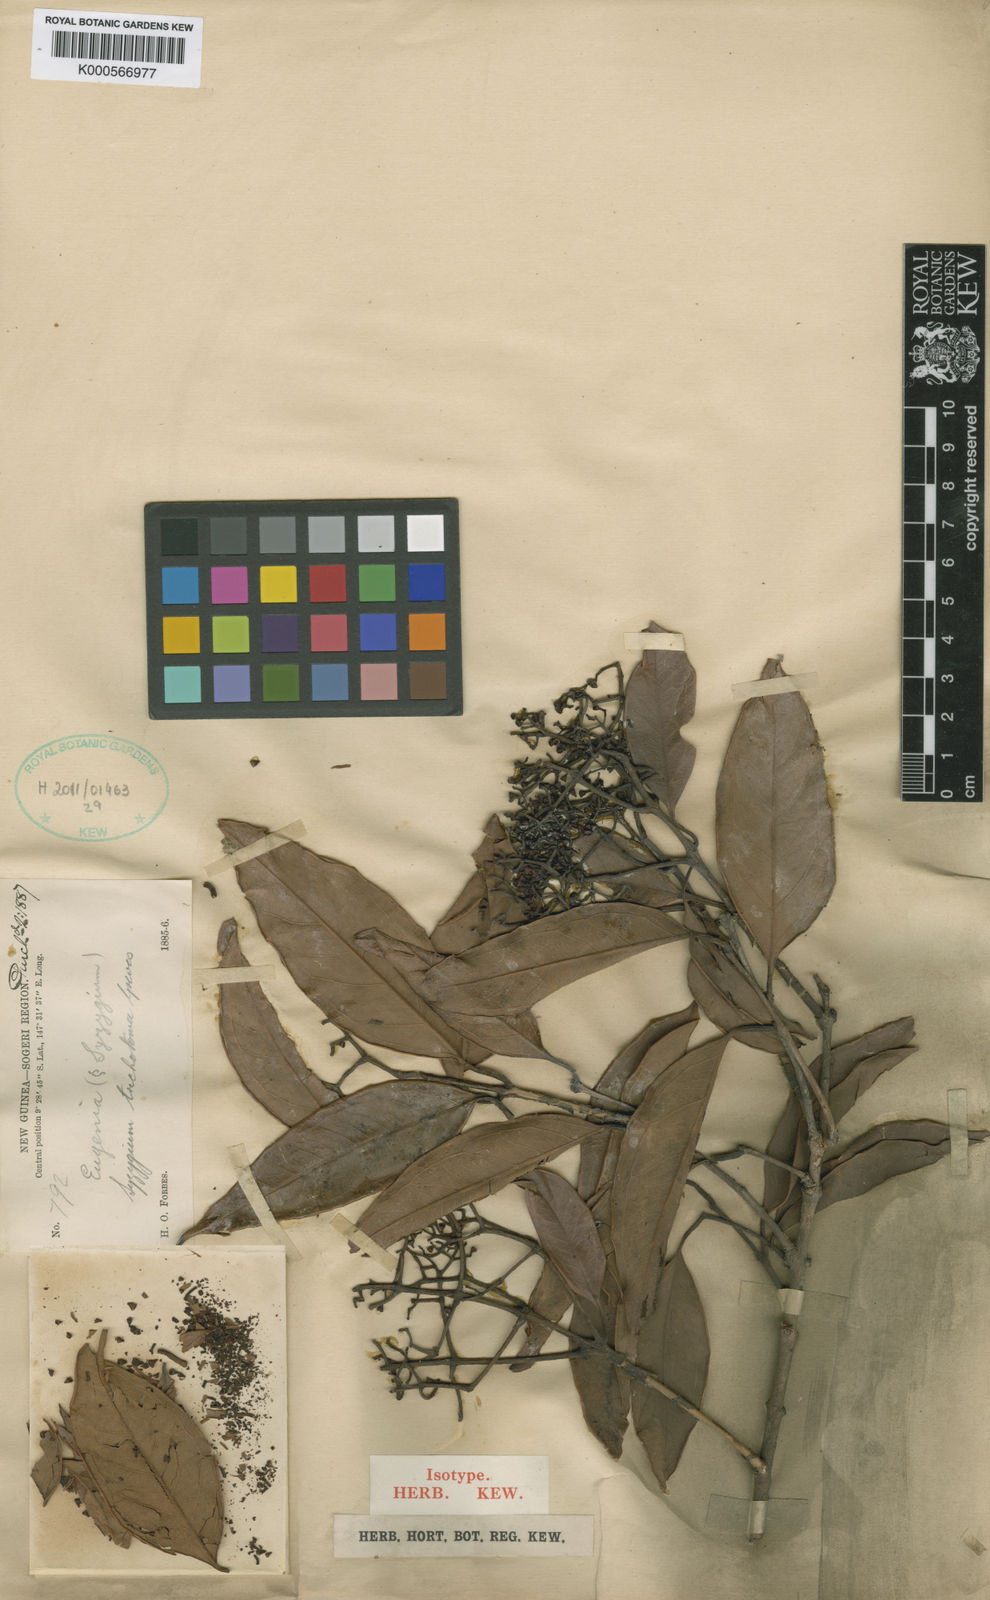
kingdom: Plantae
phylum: Tracheophyta
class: Magnoliopsida
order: Myrtales
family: Myrtaceae
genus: Syzygium
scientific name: Syzygium trichotomum
